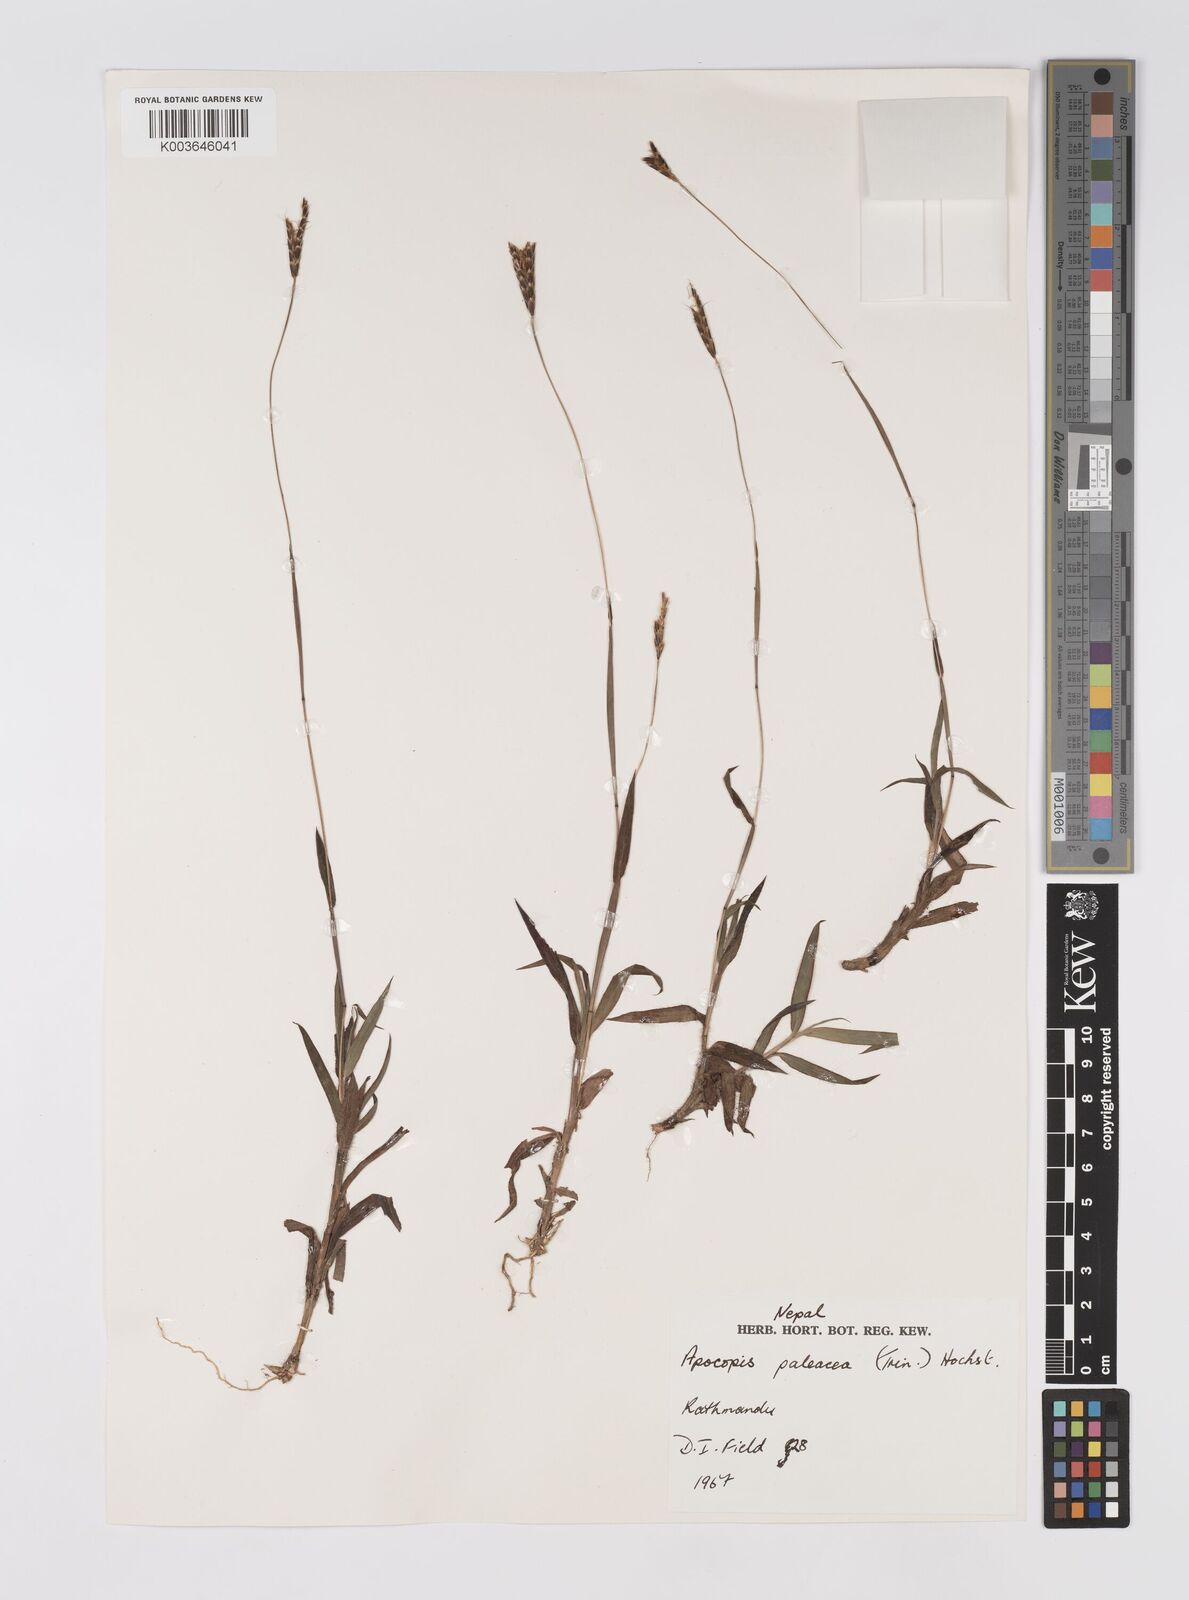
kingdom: Plantae
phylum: Tracheophyta
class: Liliopsida
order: Poales
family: Poaceae
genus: Apocopis
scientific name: Apocopis paleaceus
